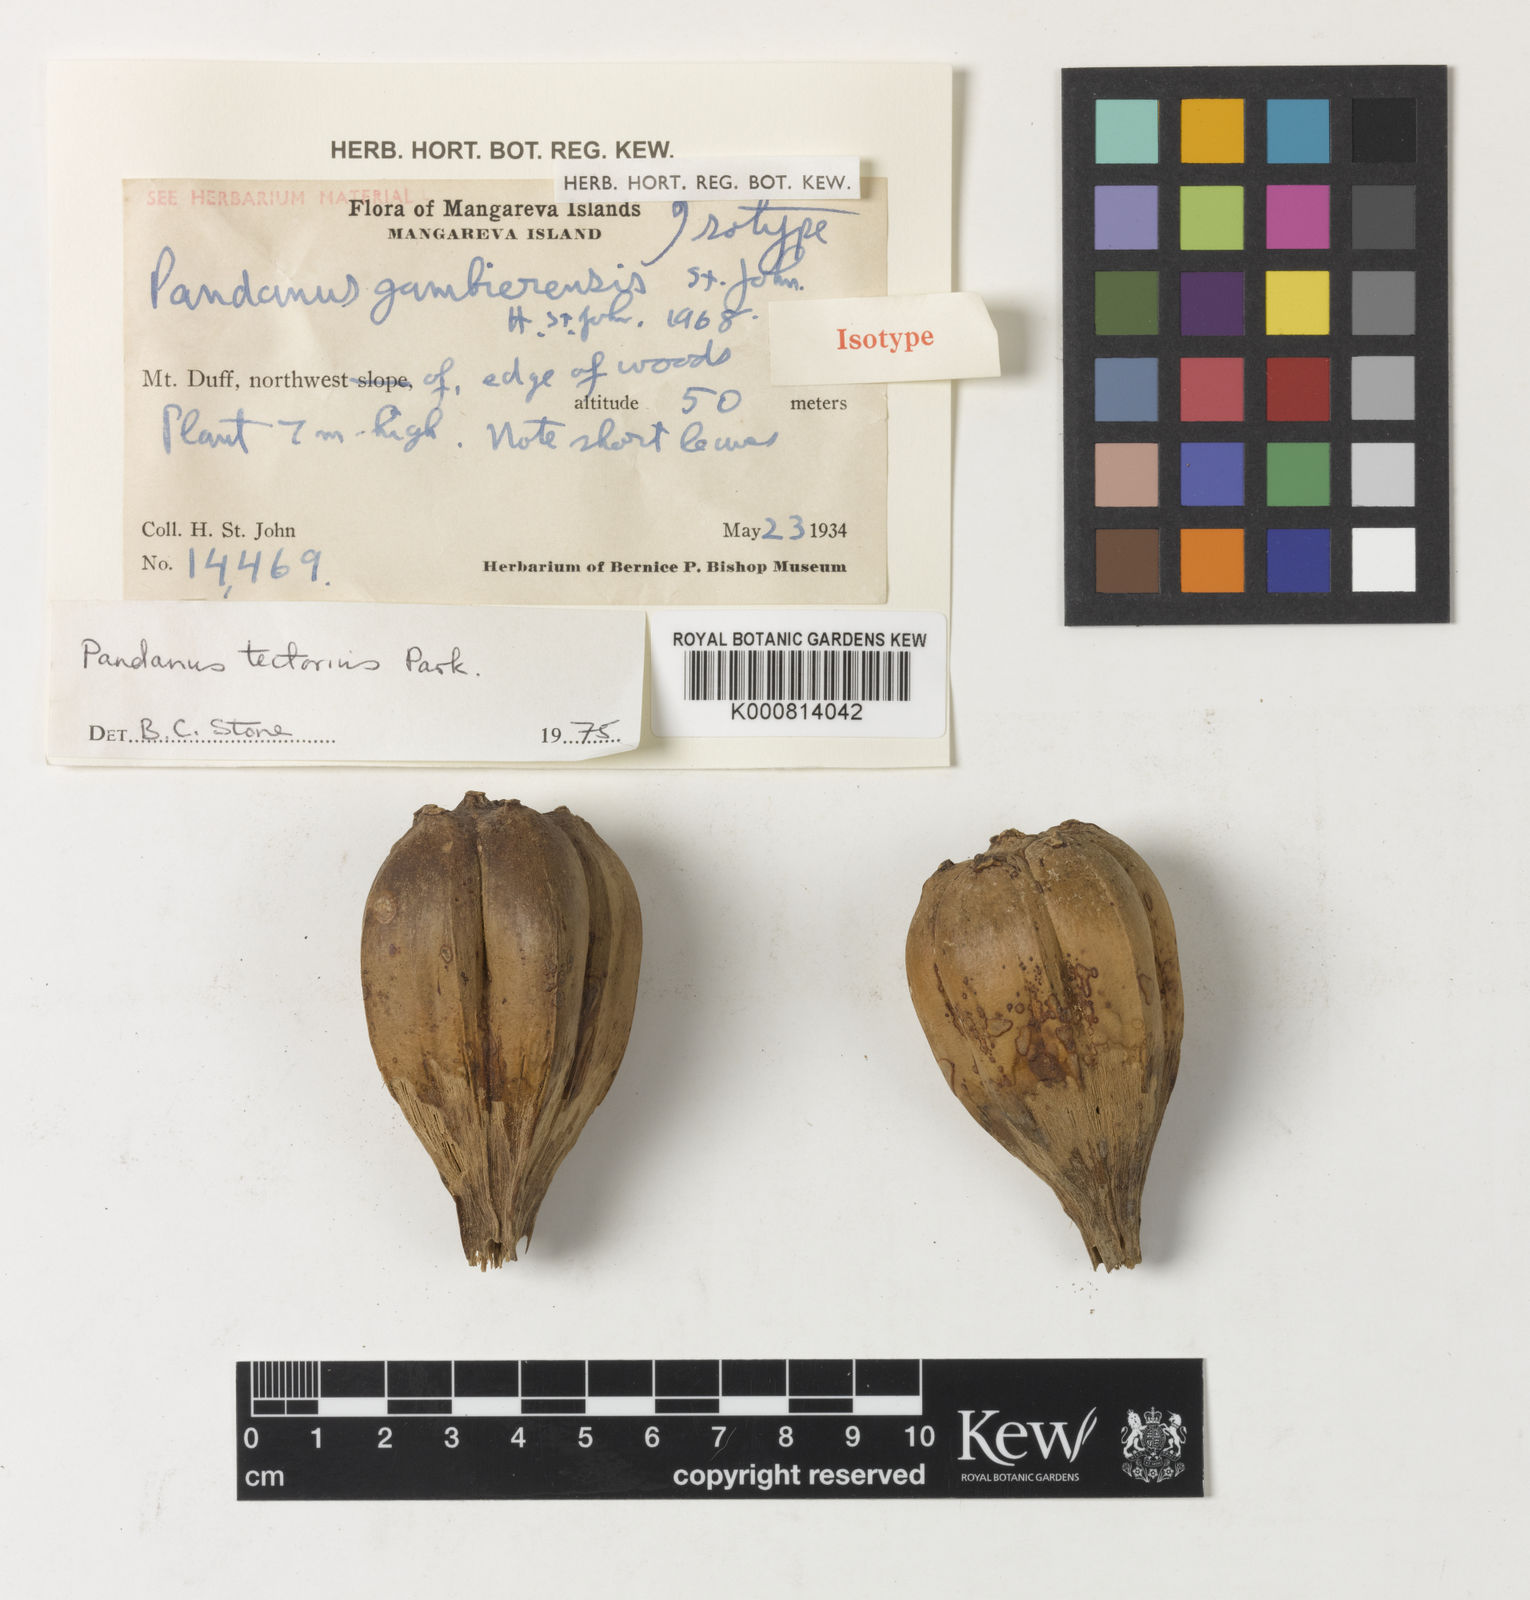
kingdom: Plantae
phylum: Tracheophyta
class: Liliopsida
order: Pandanales
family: Pandanaceae
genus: Pandanus
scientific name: Pandanus
